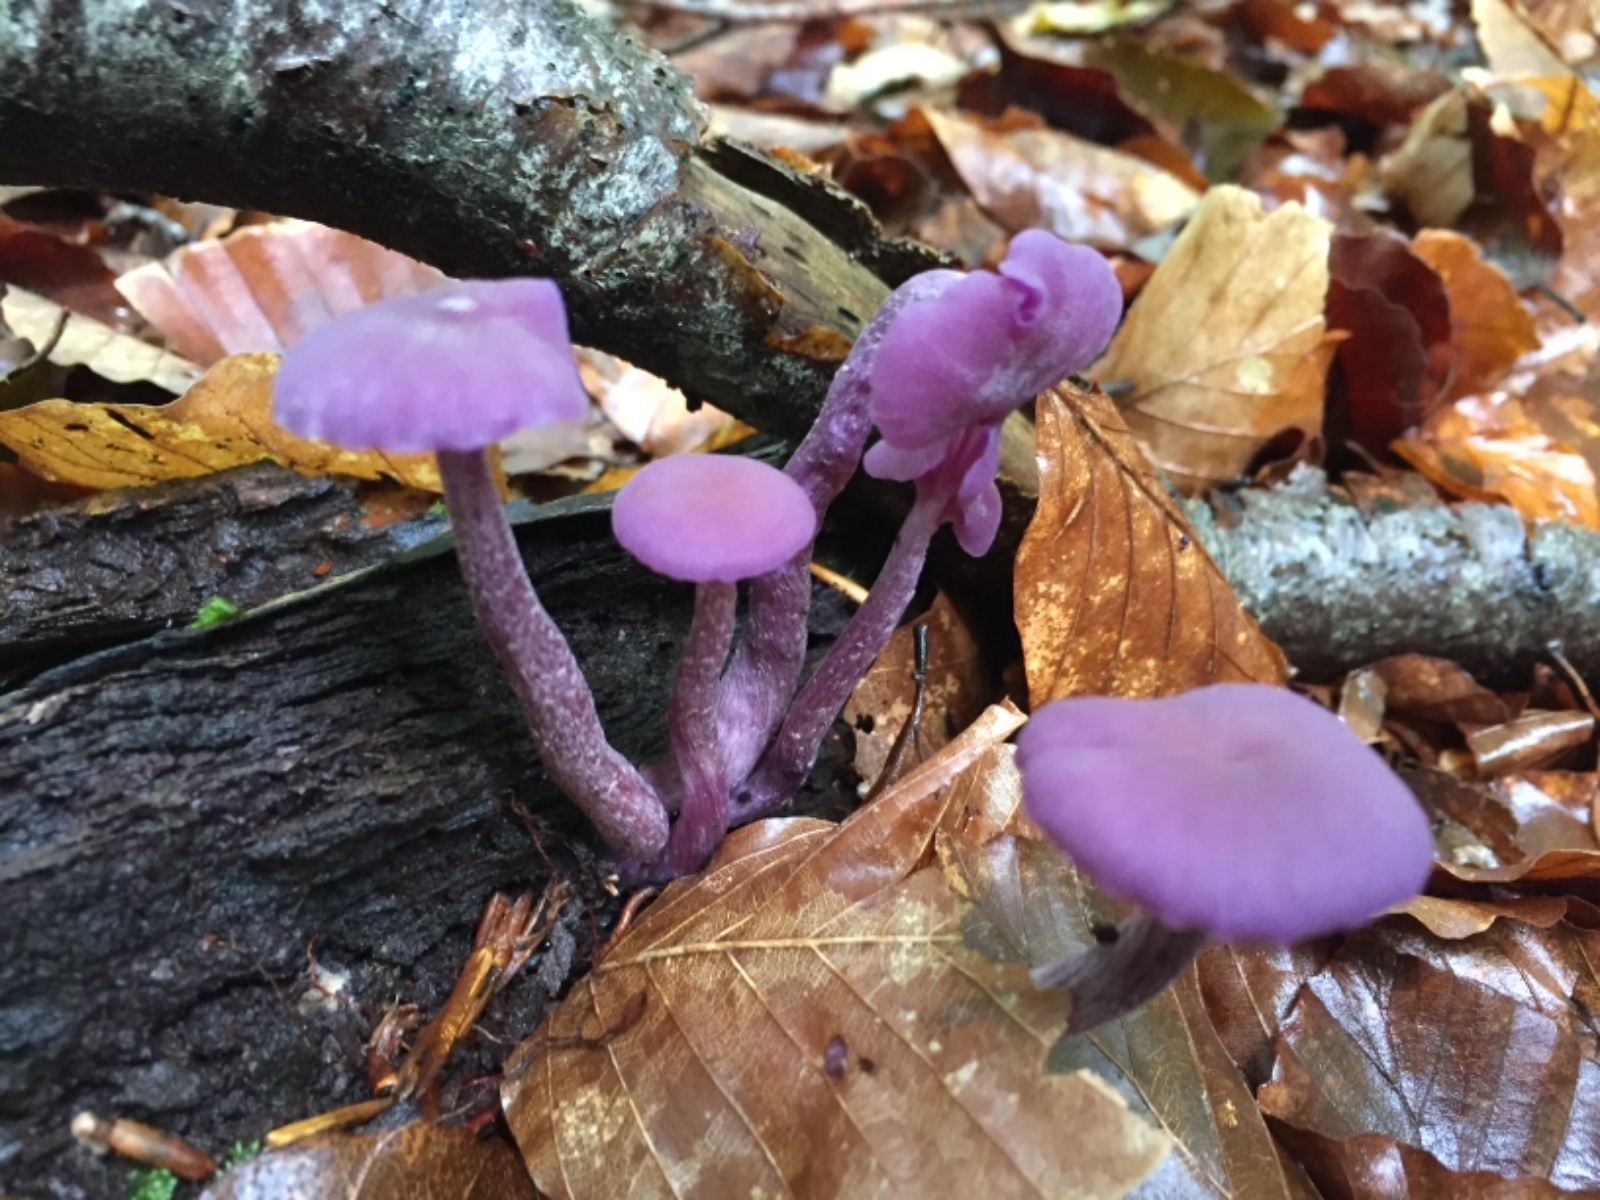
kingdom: Fungi
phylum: Basidiomycota
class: Agaricomycetes
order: Agaricales
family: Hydnangiaceae
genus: Laccaria
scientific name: Laccaria amethystina
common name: violet ametysthat
